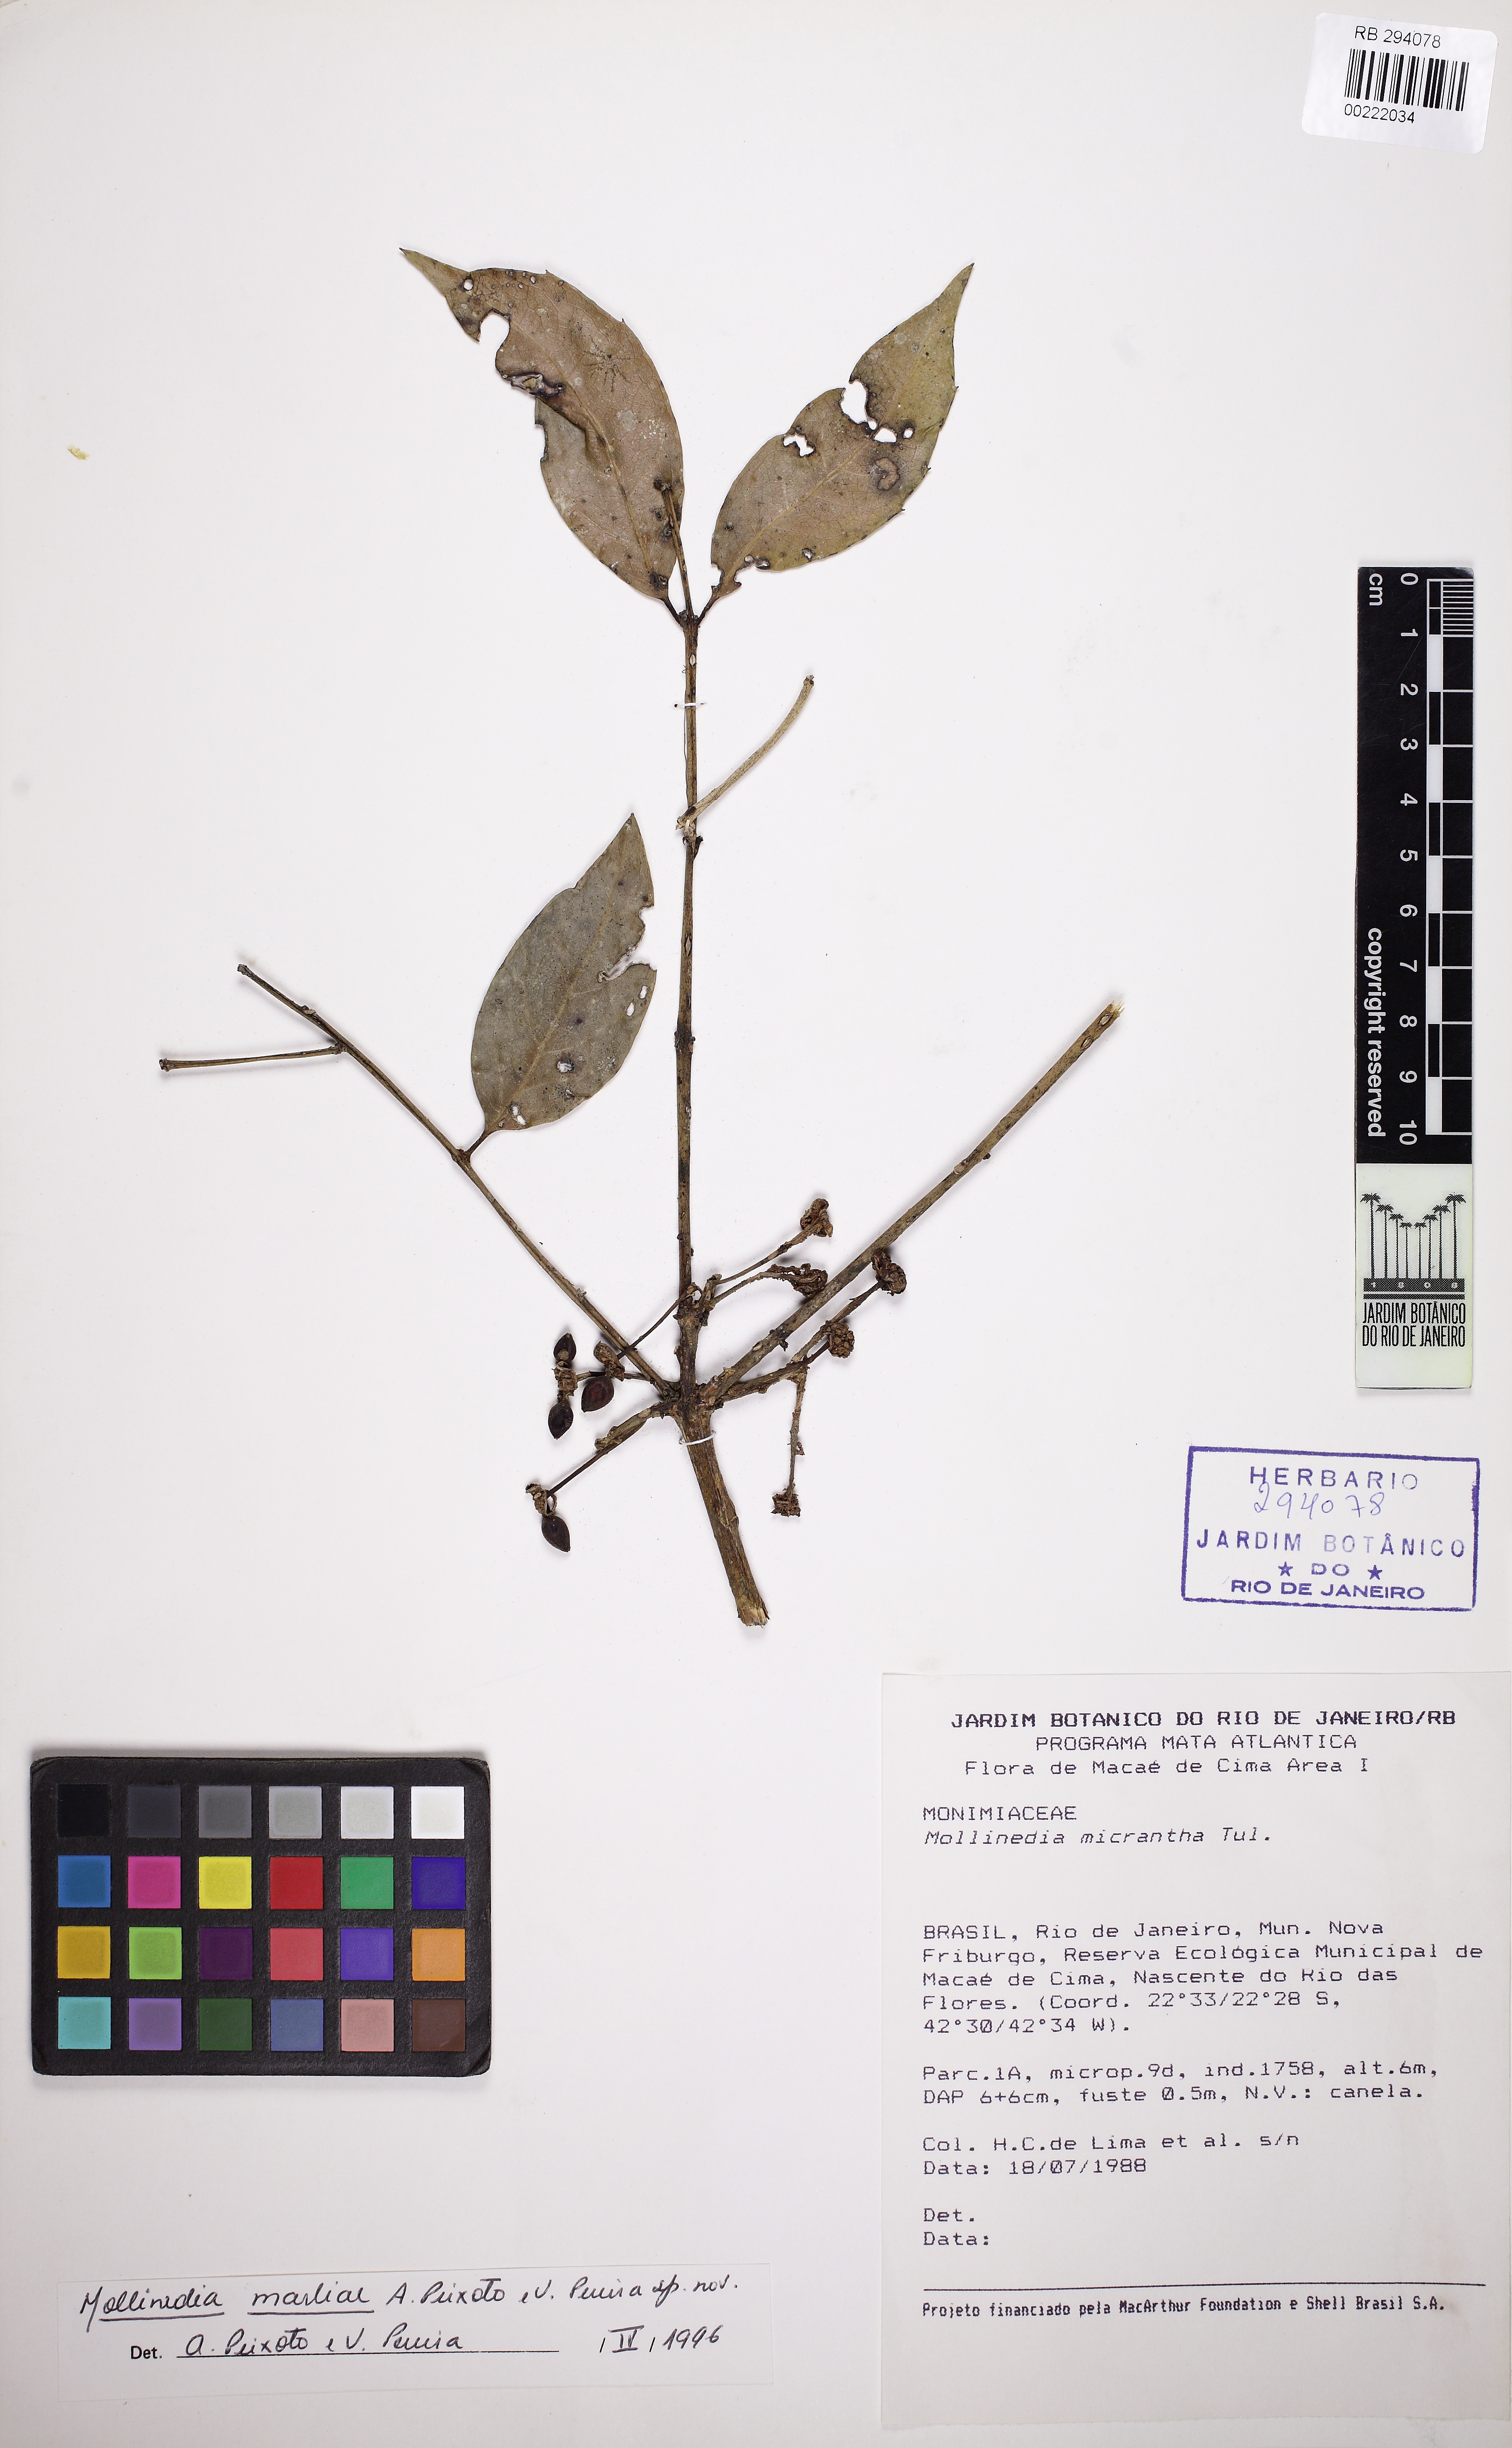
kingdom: Plantae
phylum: Tracheophyta
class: Magnoliopsida
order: Laurales
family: Monimiaceae
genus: Mollinedia
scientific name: Mollinedia elegans
